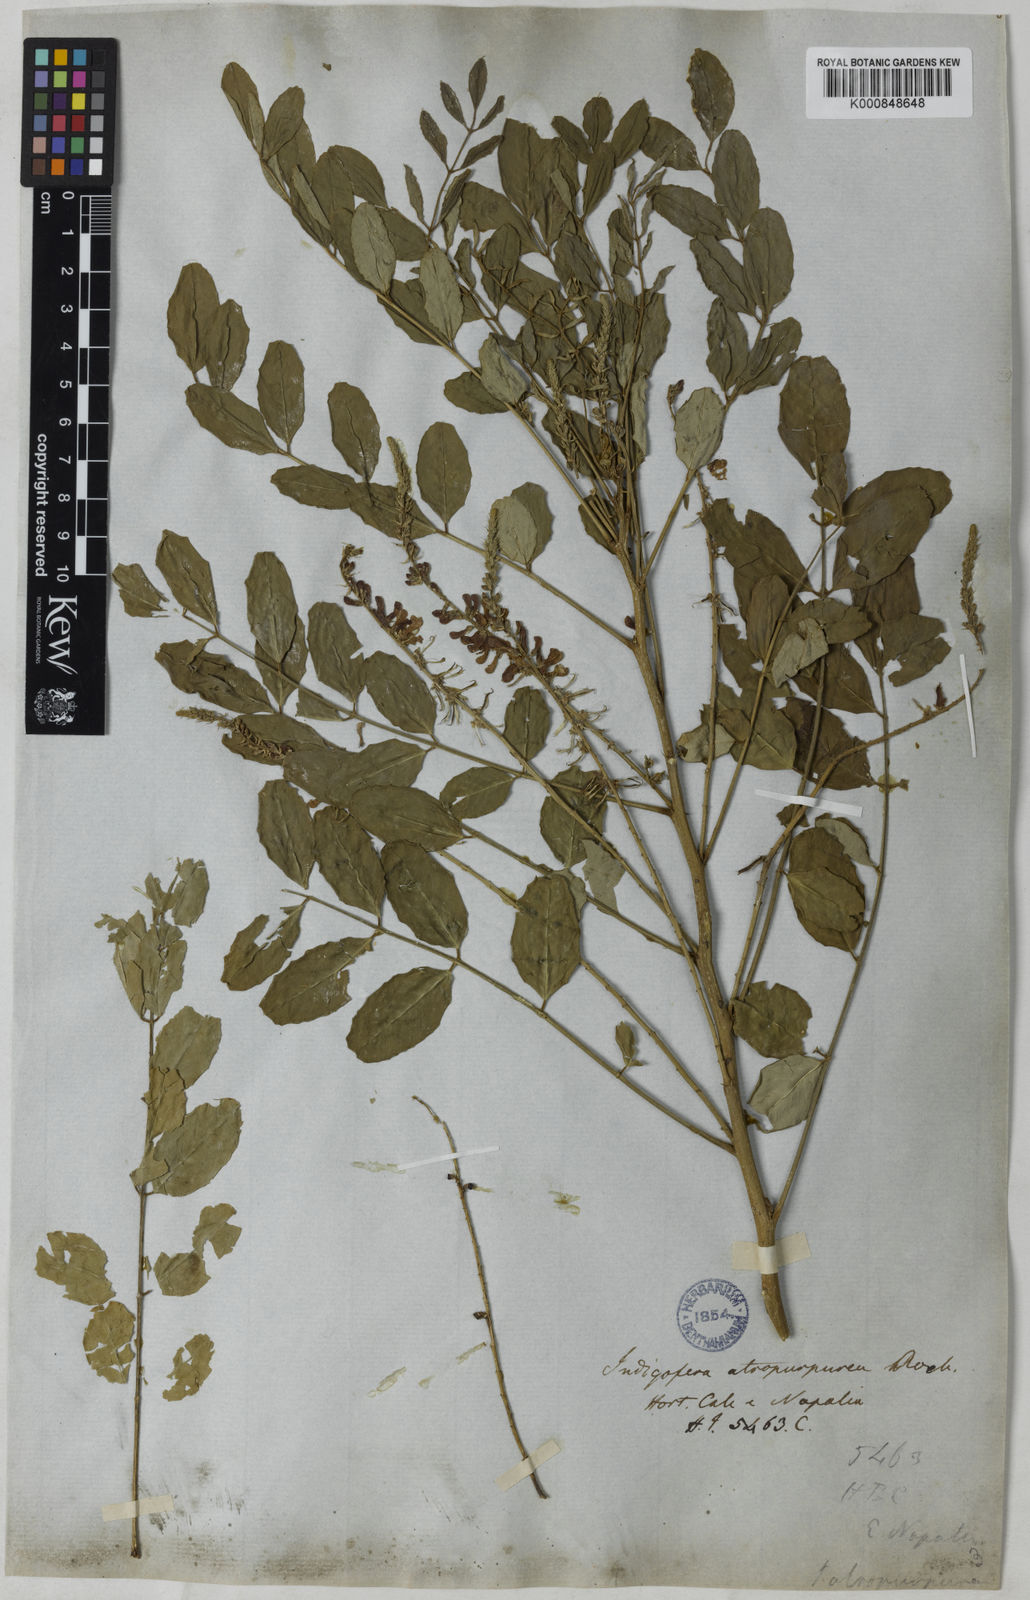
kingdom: Plantae
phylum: Tracheophyta
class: Magnoliopsida
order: Fabales
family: Fabaceae
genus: Indigofera
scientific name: Indigofera
